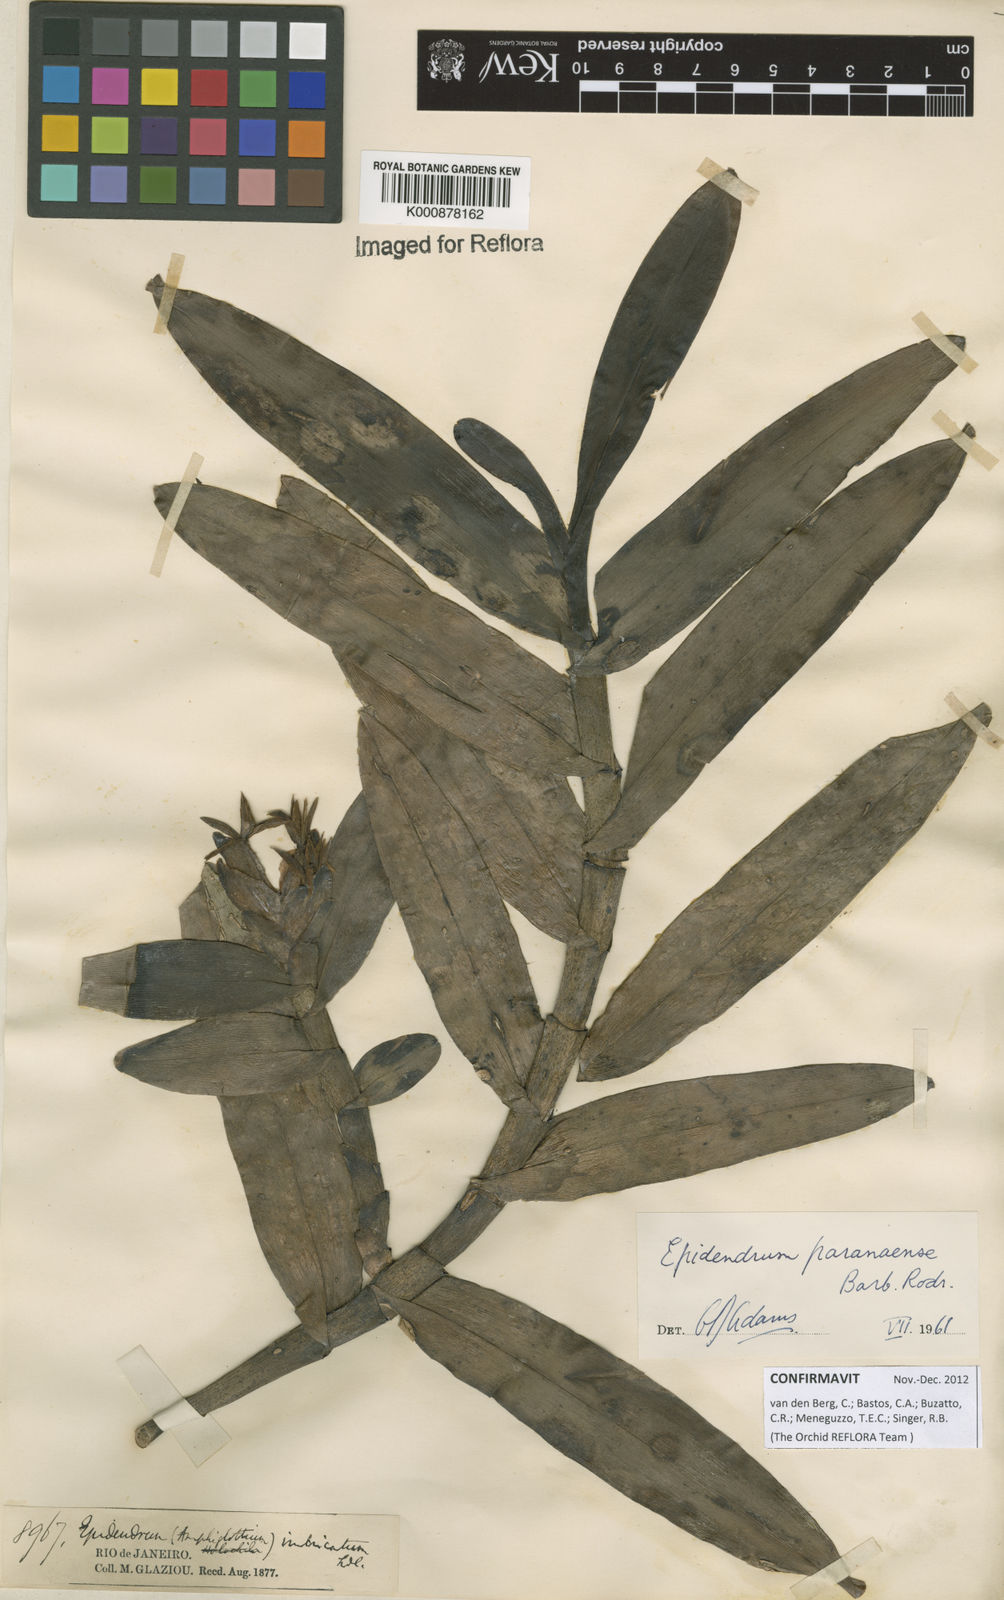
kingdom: Plantae
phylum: Tracheophyta
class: Liliopsida
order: Asparagales
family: Orchidaceae
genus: Epidendrum
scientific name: Epidendrum paranaense
